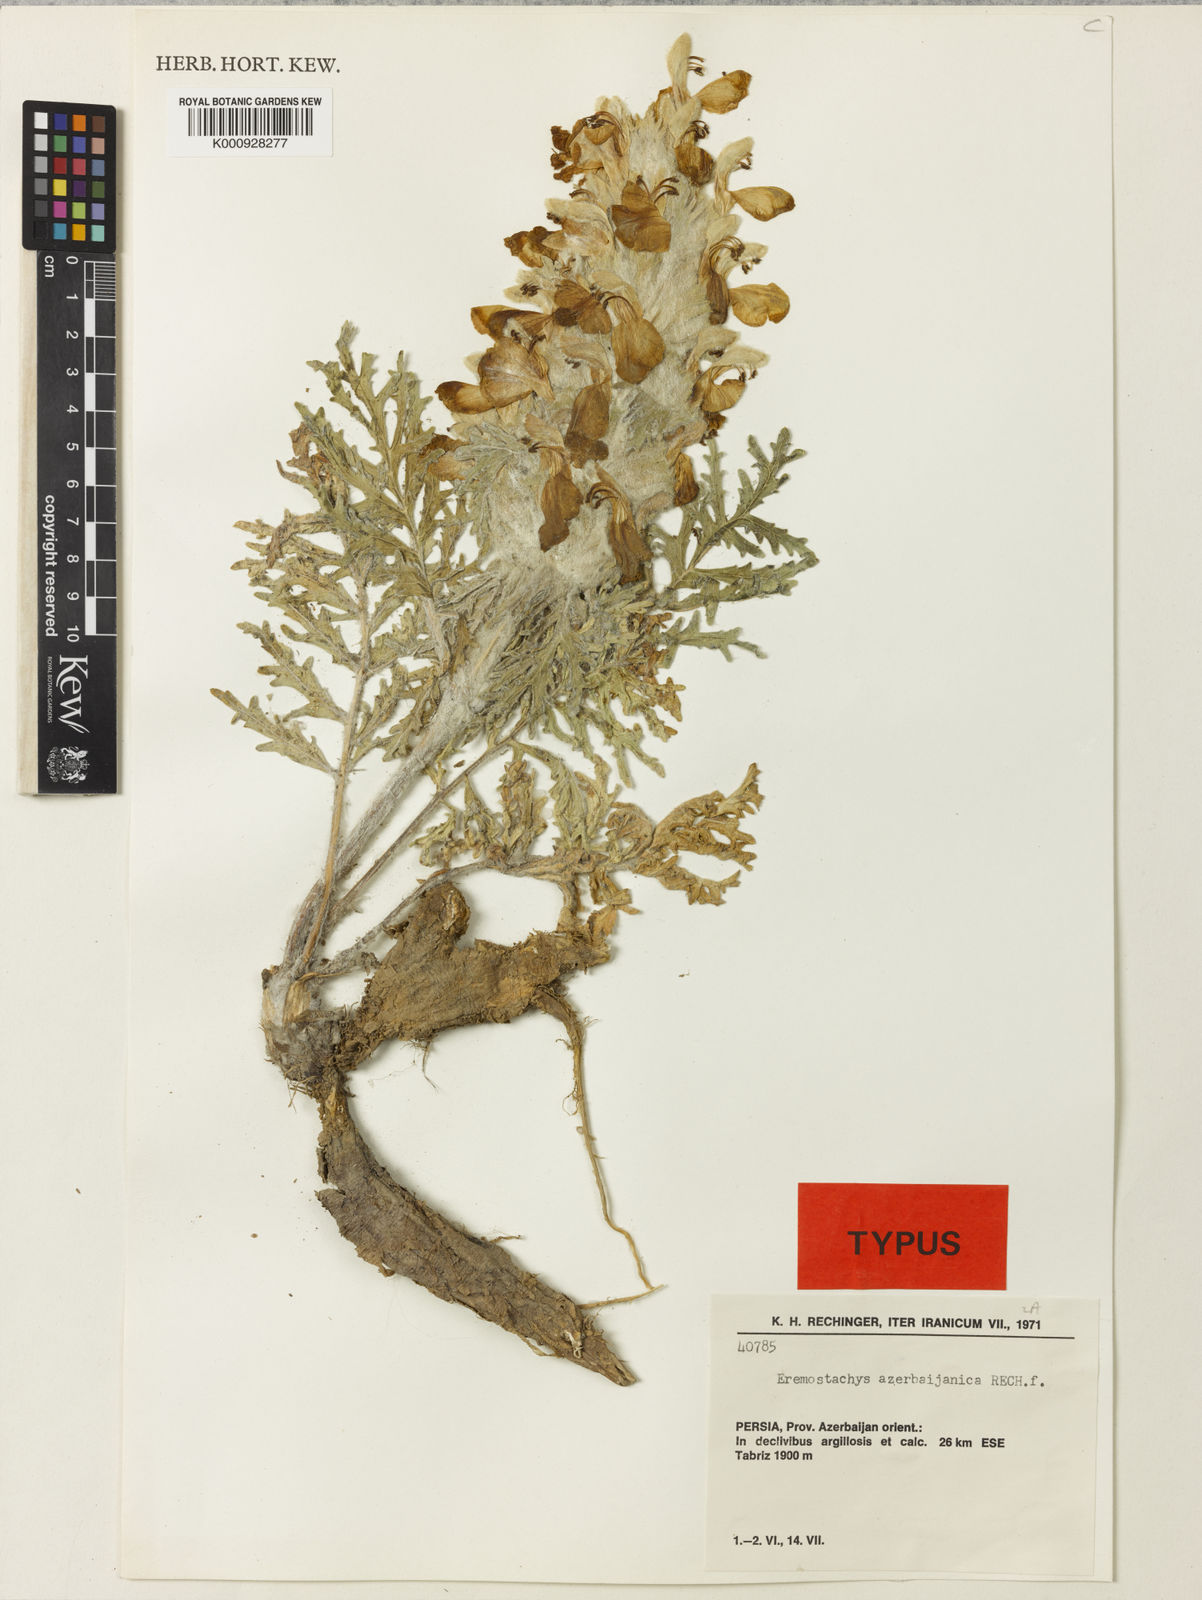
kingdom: Plantae
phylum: Tracheophyta
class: Magnoliopsida
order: Lamiales
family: Lamiaceae
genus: Phlomoides
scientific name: Phlomoides azerbaijanica
